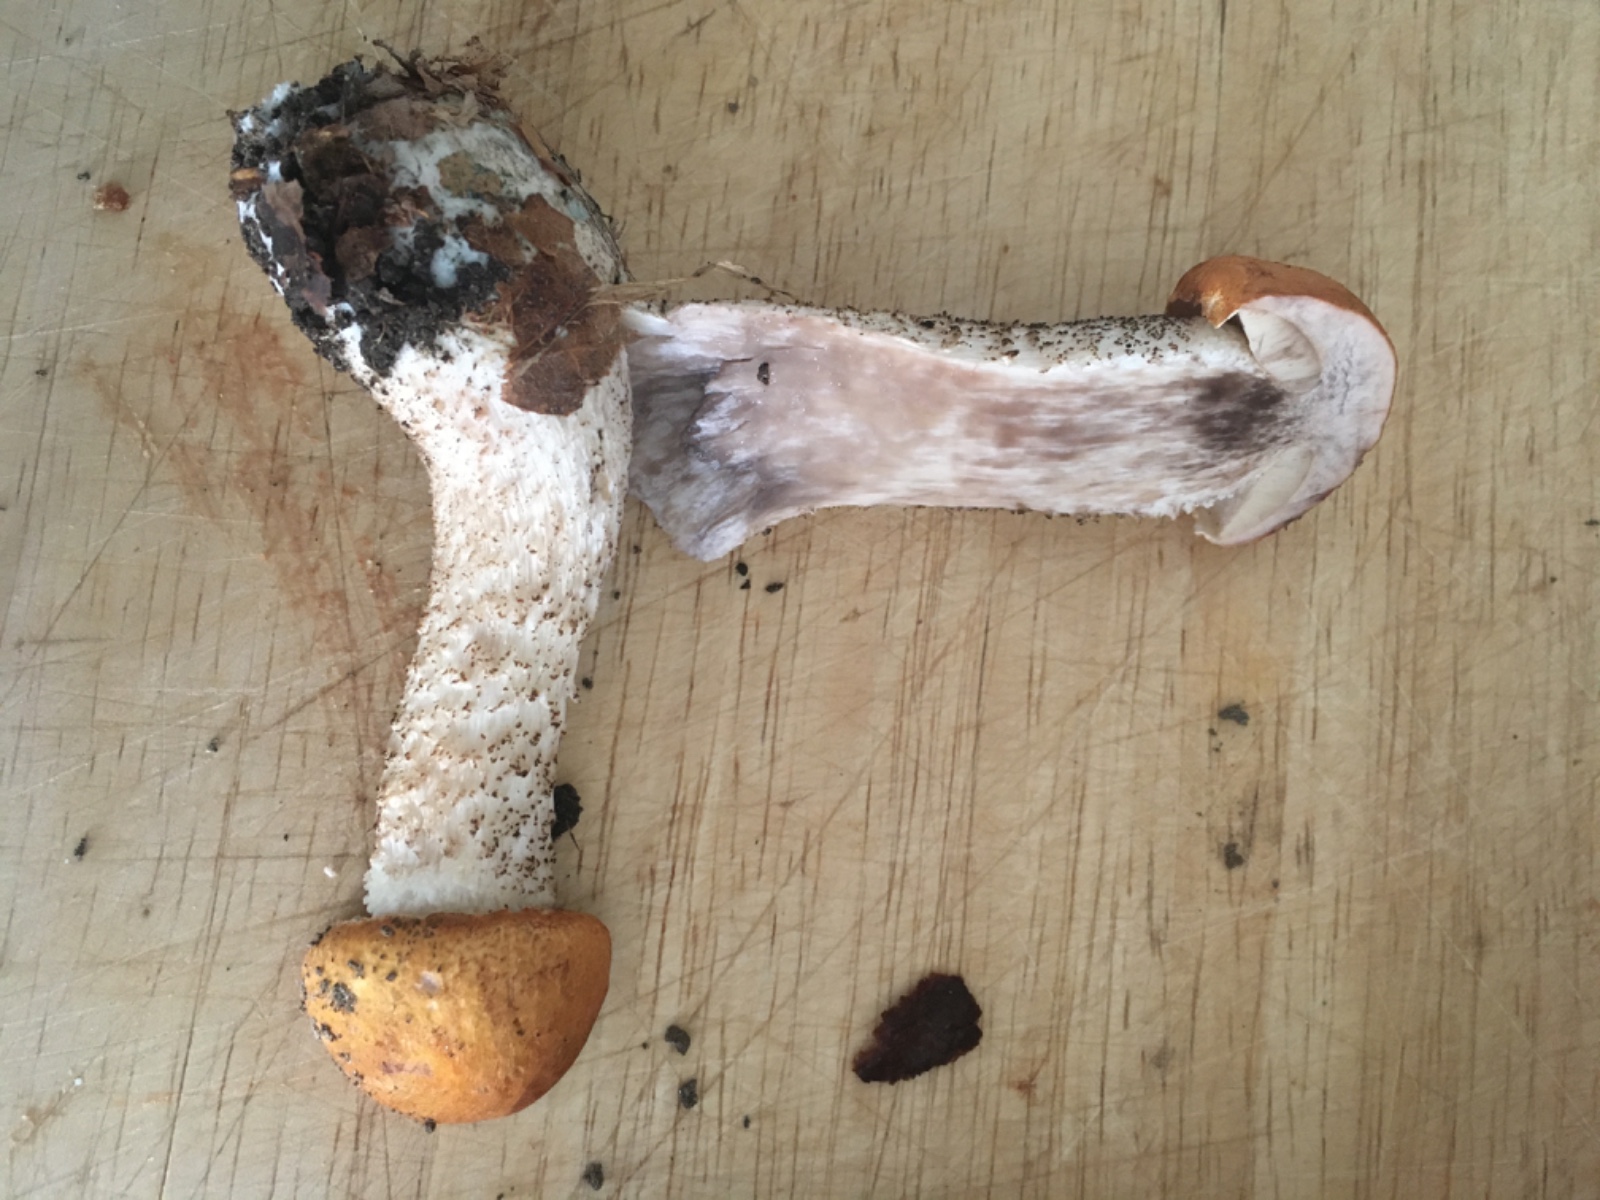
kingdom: Fungi
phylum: Basidiomycota
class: Agaricomycetes
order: Boletales
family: Boletaceae
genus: Leccinum
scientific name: Leccinum versipelle
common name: orange skælrørhat
